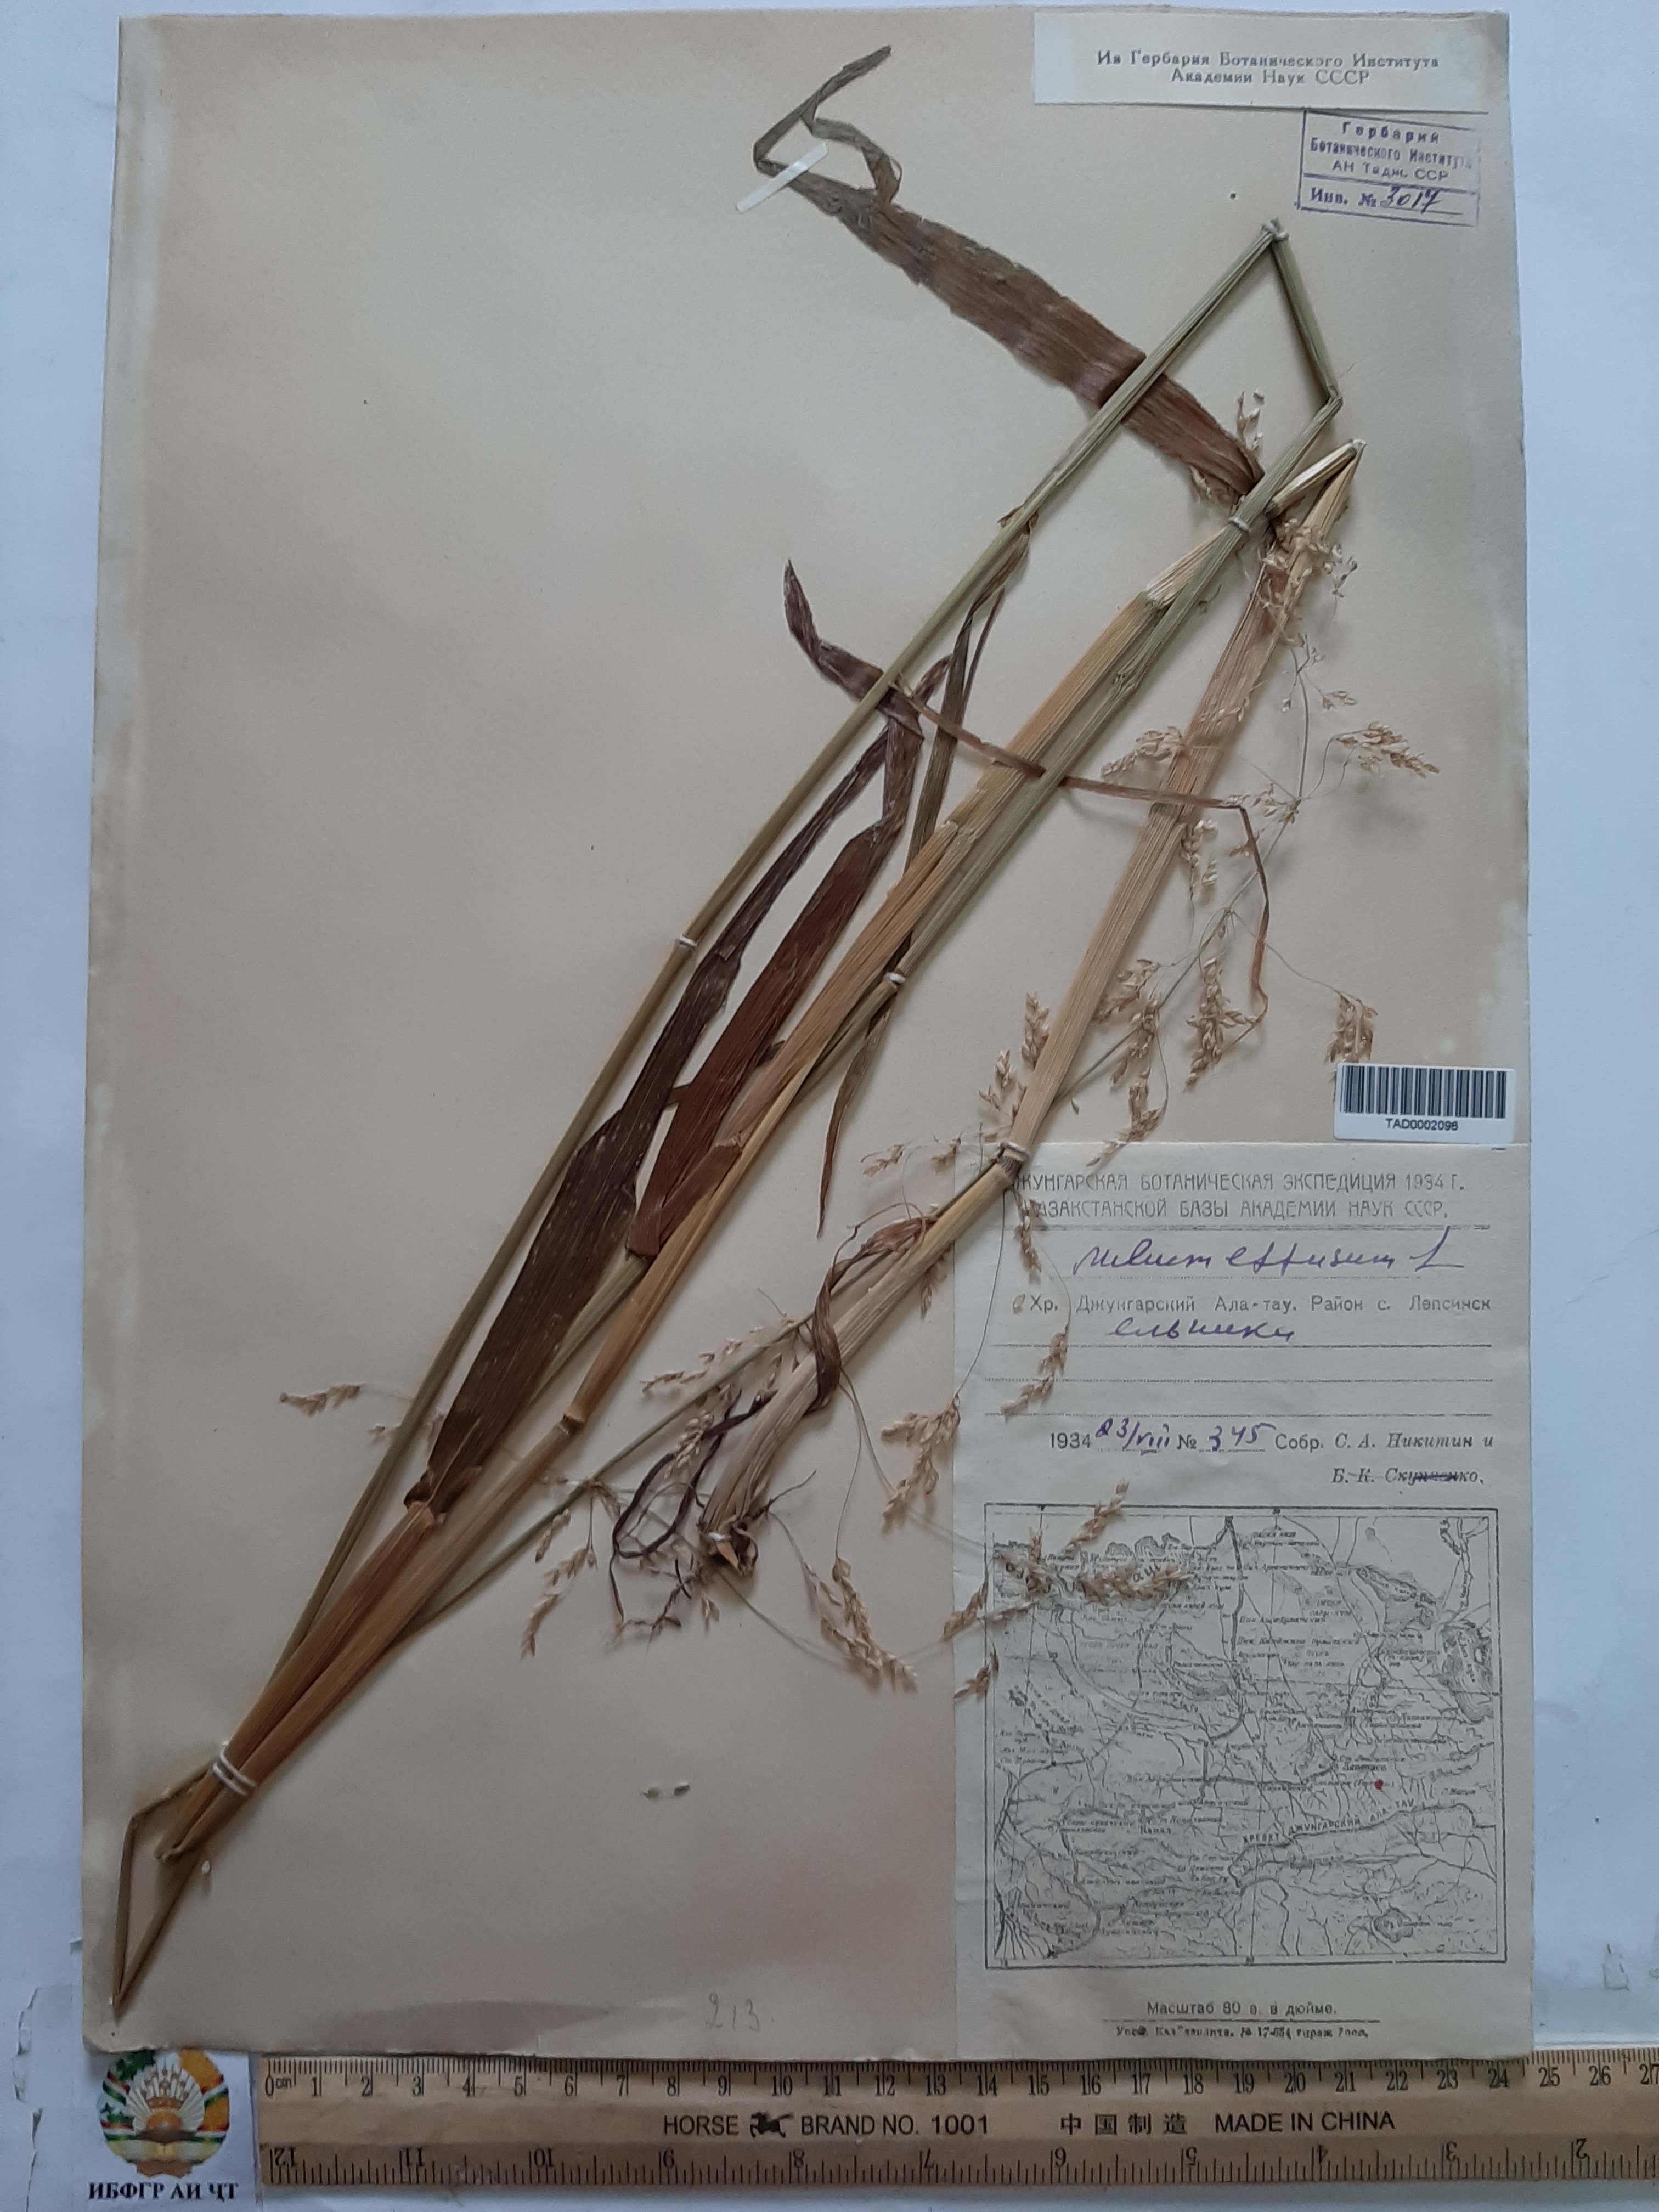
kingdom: Plantae
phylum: Tracheophyta
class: Liliopsida
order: Poales
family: Poaceae
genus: Milium
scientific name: Milium effusum
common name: Wood millet
